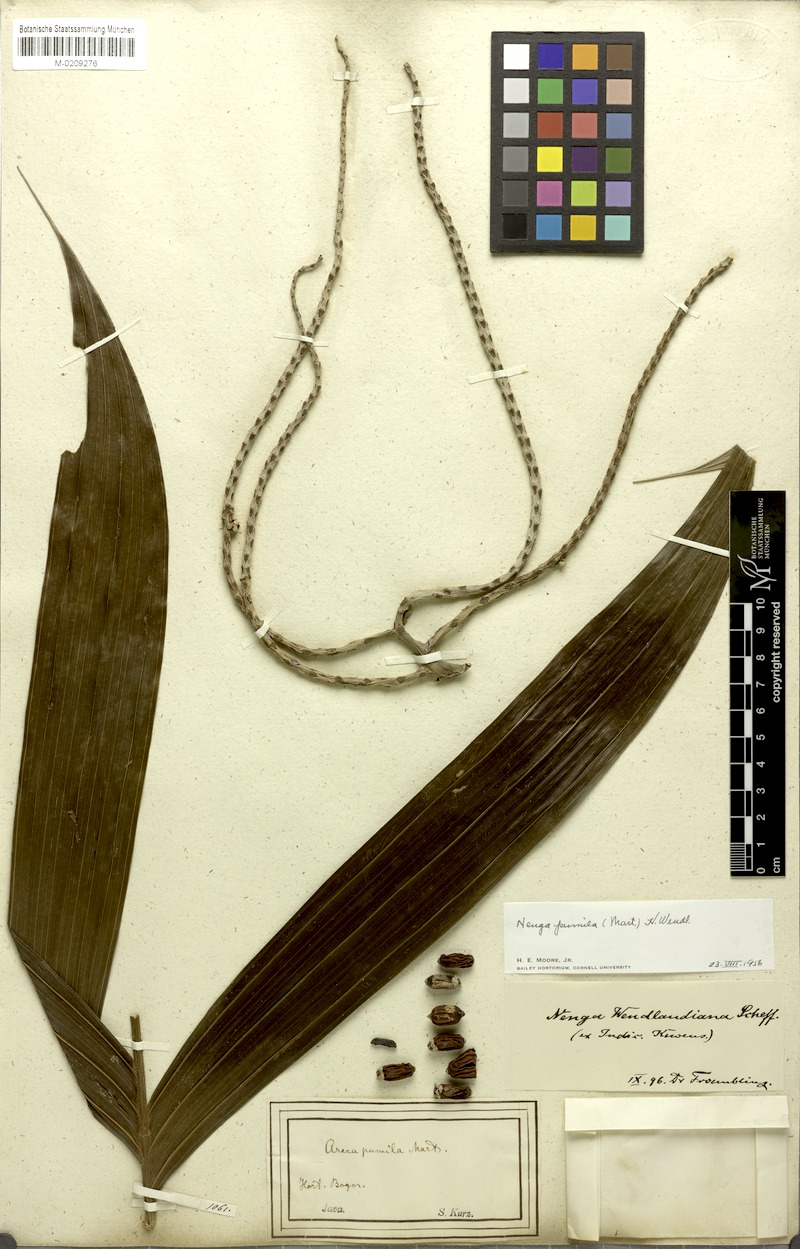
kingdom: Plantae
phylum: Tracheophyta
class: Liliopsida
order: Arecales
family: Arecaceae
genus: Nenga
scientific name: Nenga pumila
